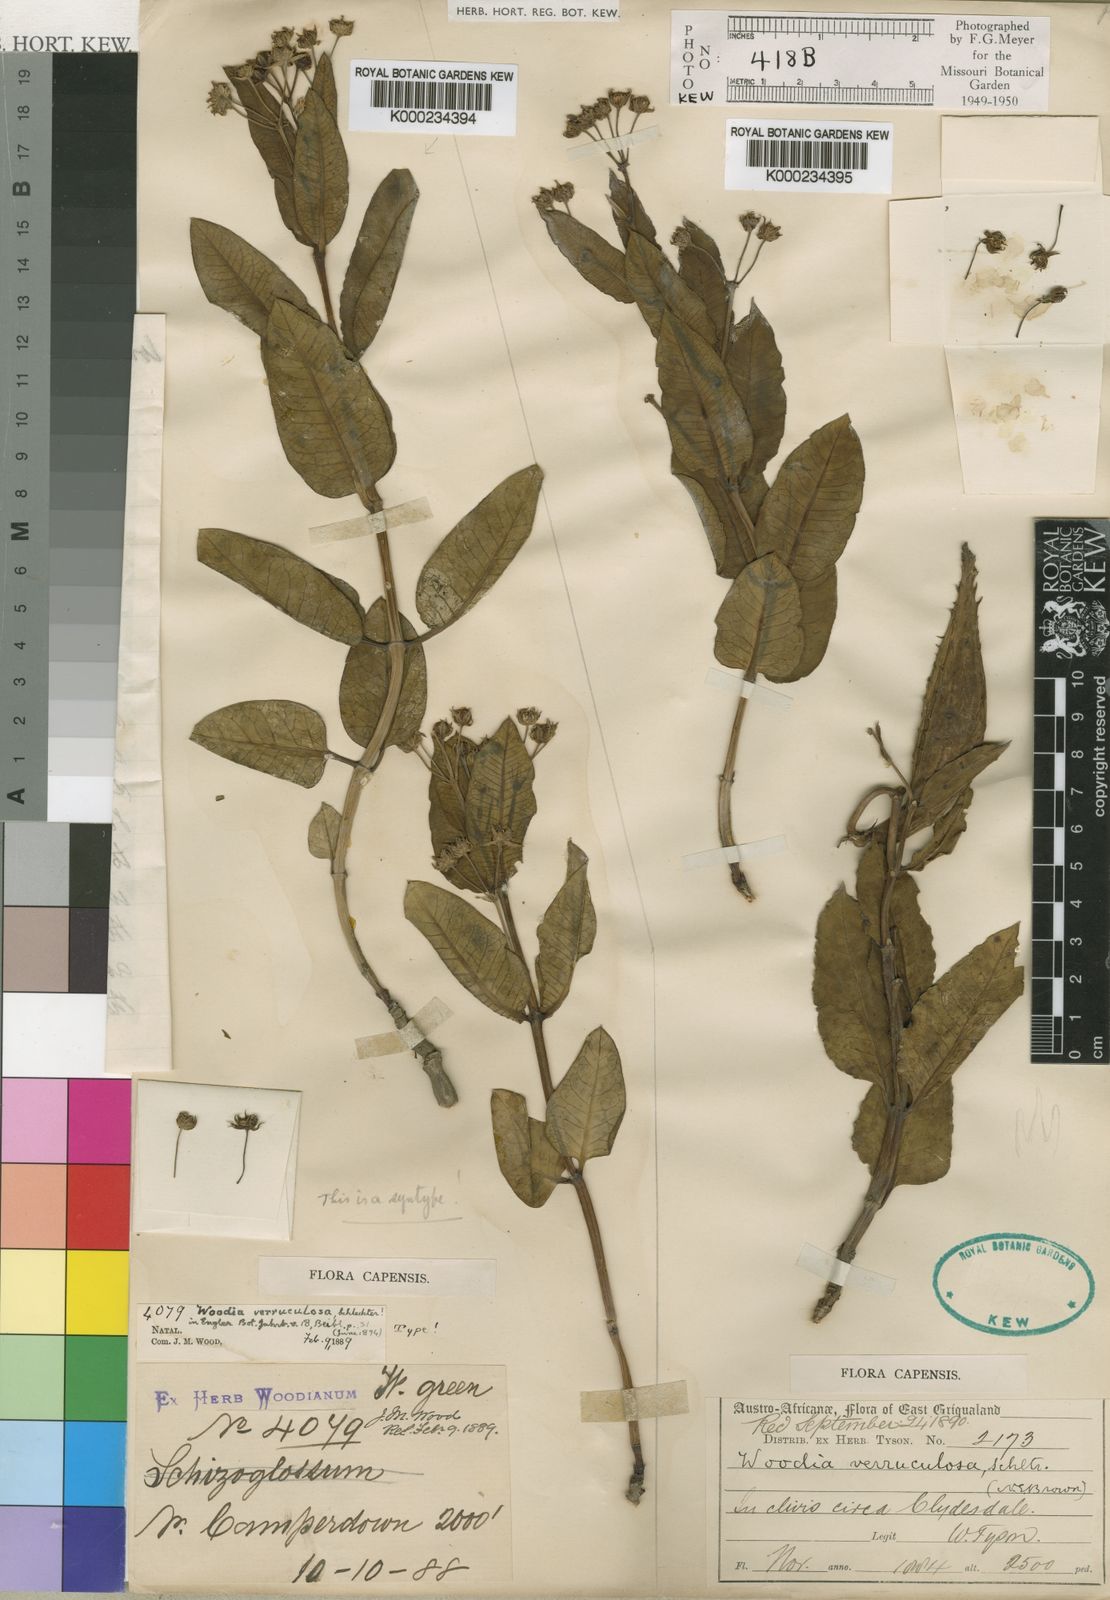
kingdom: Plantae
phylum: Tracheophyta
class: Magnoliopsida
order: Gentianales
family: Apocynaceae
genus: Woodia
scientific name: Woodia verruculosa
